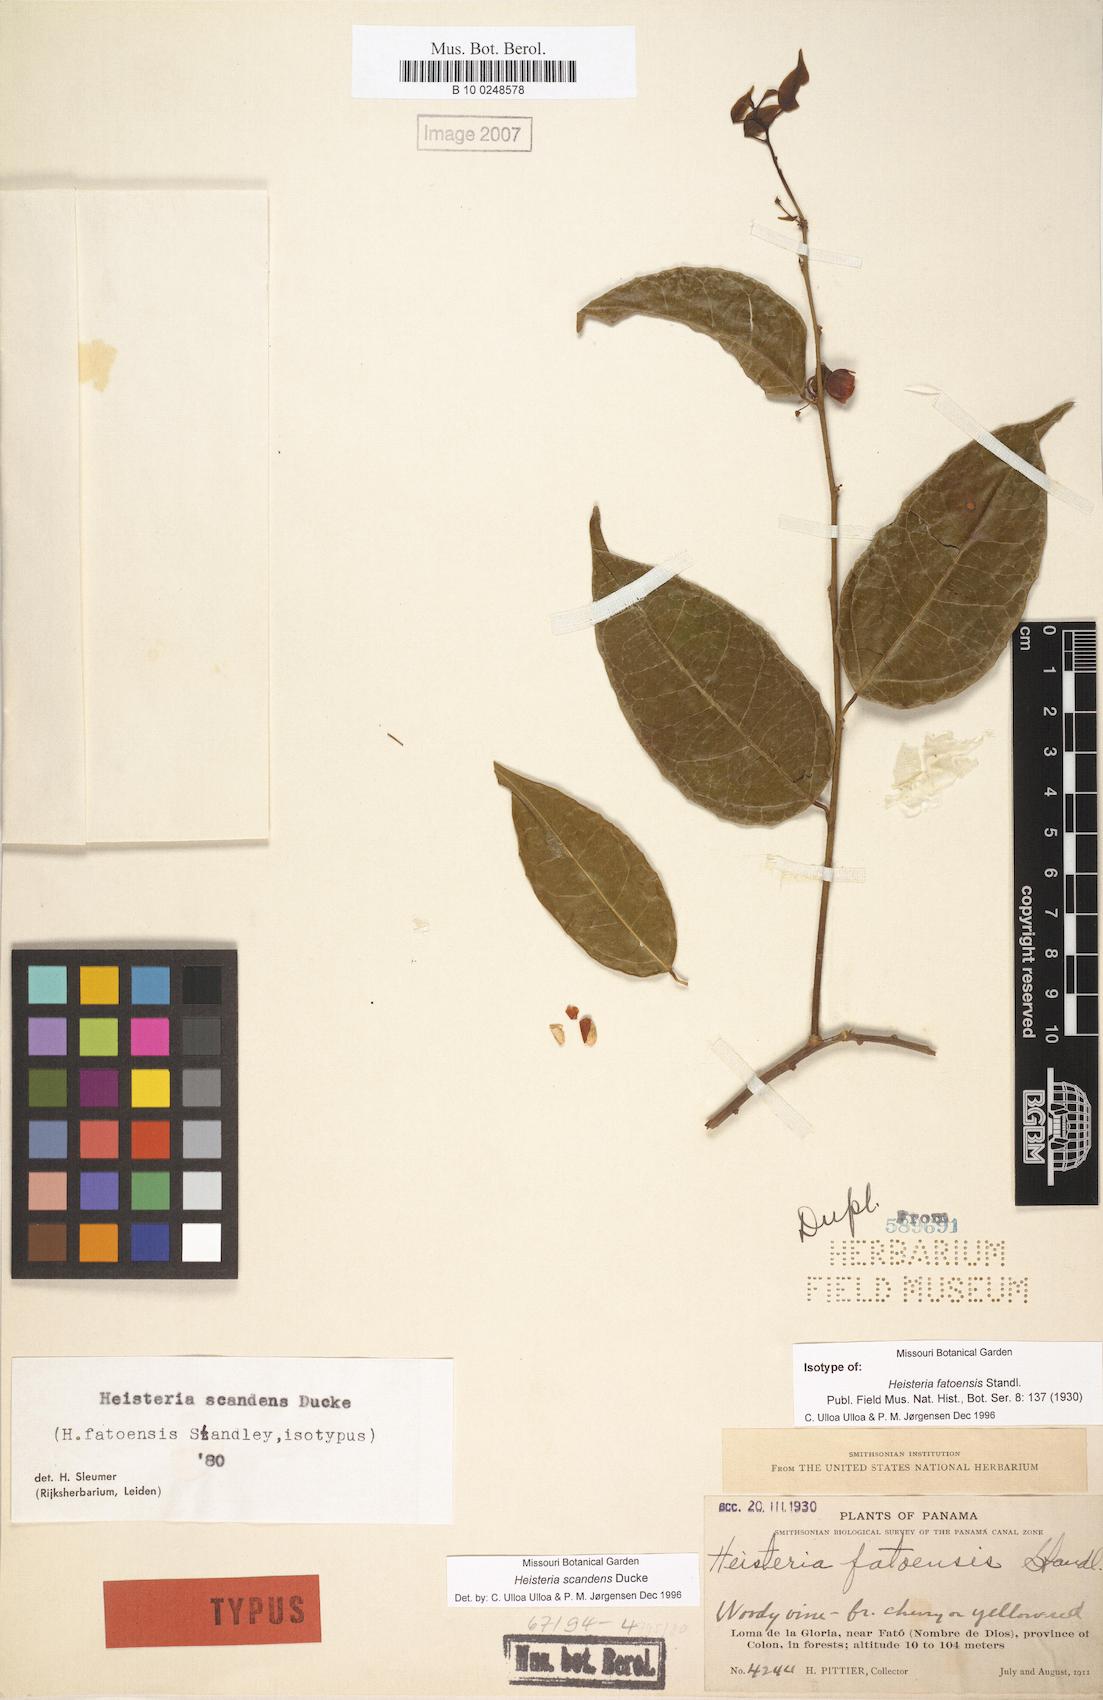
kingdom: Plantae
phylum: Tracheophyta
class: Magnoliopsida
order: Santalales
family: Erythropalaceae
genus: Heisteria
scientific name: Heisteria scandens
